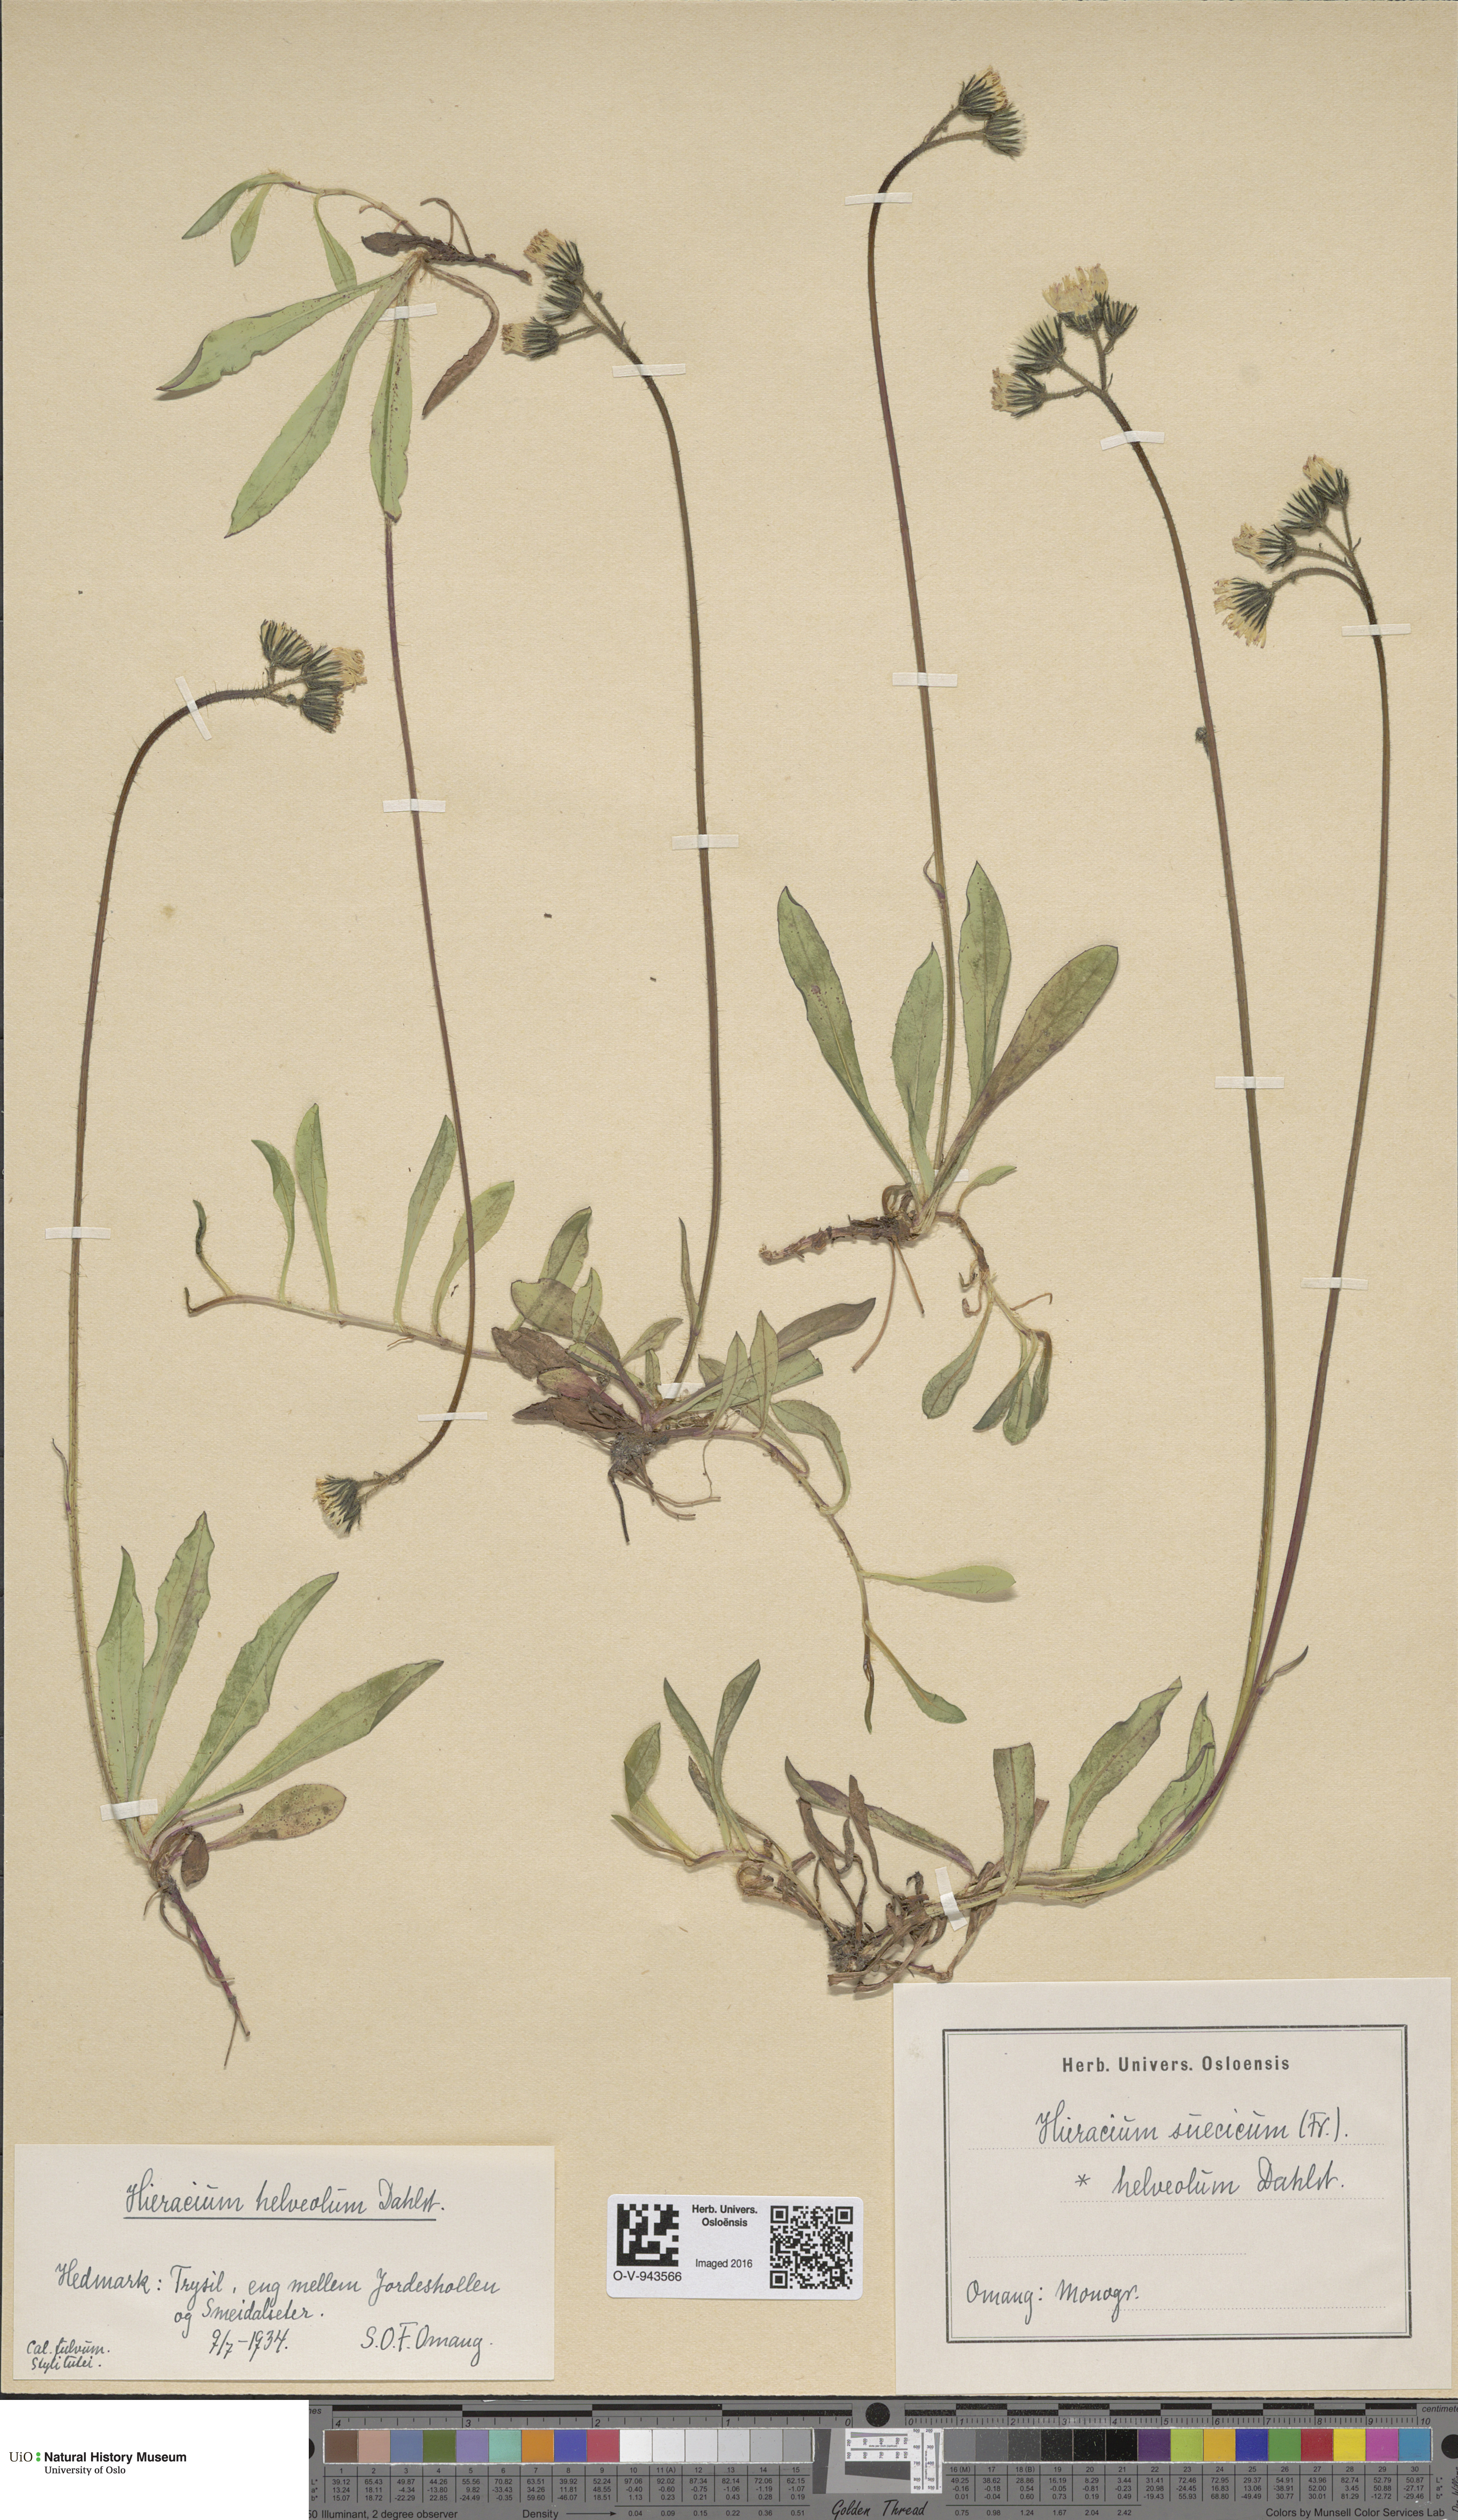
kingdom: Plantae
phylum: Tracheophyta
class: Magnoliopsida
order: Asterales
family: Asteraceae
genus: Pilosella
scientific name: Pilosella dubia
